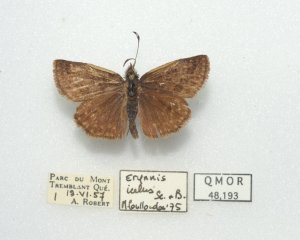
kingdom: Animalia
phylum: Arthropoda
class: Insecta
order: Lepidoptera
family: Hesperiidae
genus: Erynnis
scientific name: Erynnis icelus
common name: Dreamy Duskywing
